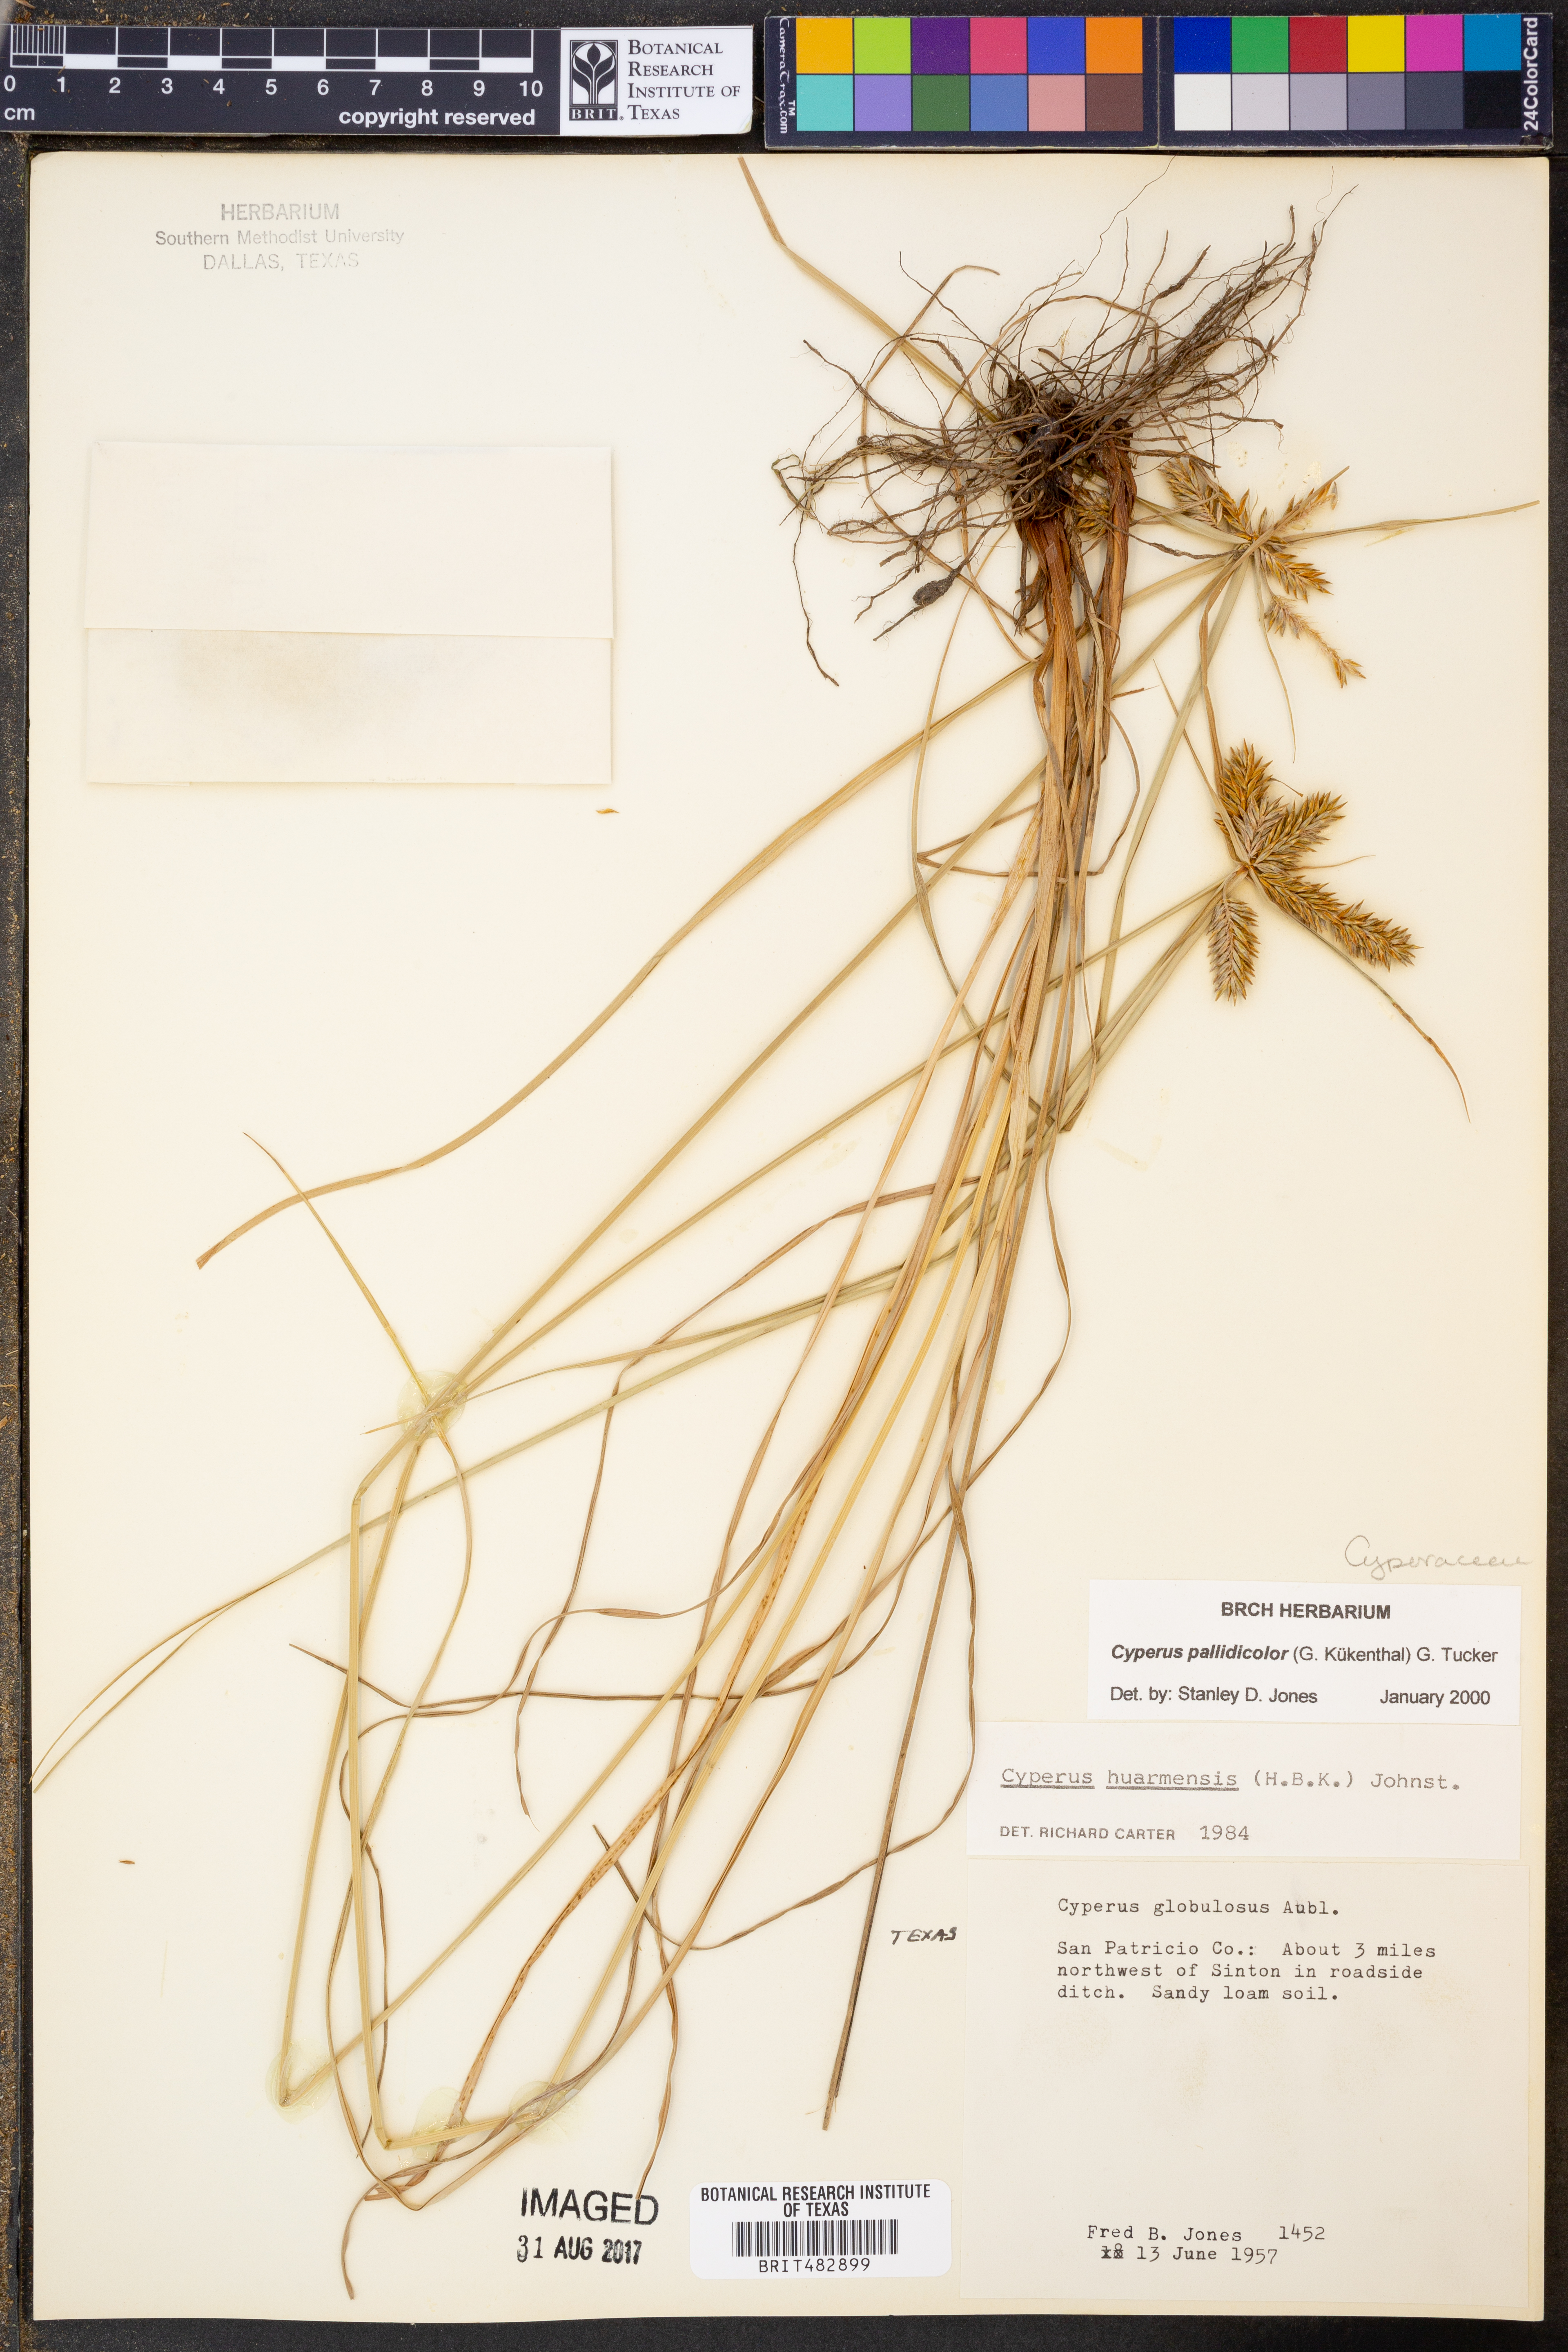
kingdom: Plantae
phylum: Tracheophyta
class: Liliopsida
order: Poales
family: Cyperaceae
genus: Cyperus
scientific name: Cyperus pallidicolor
